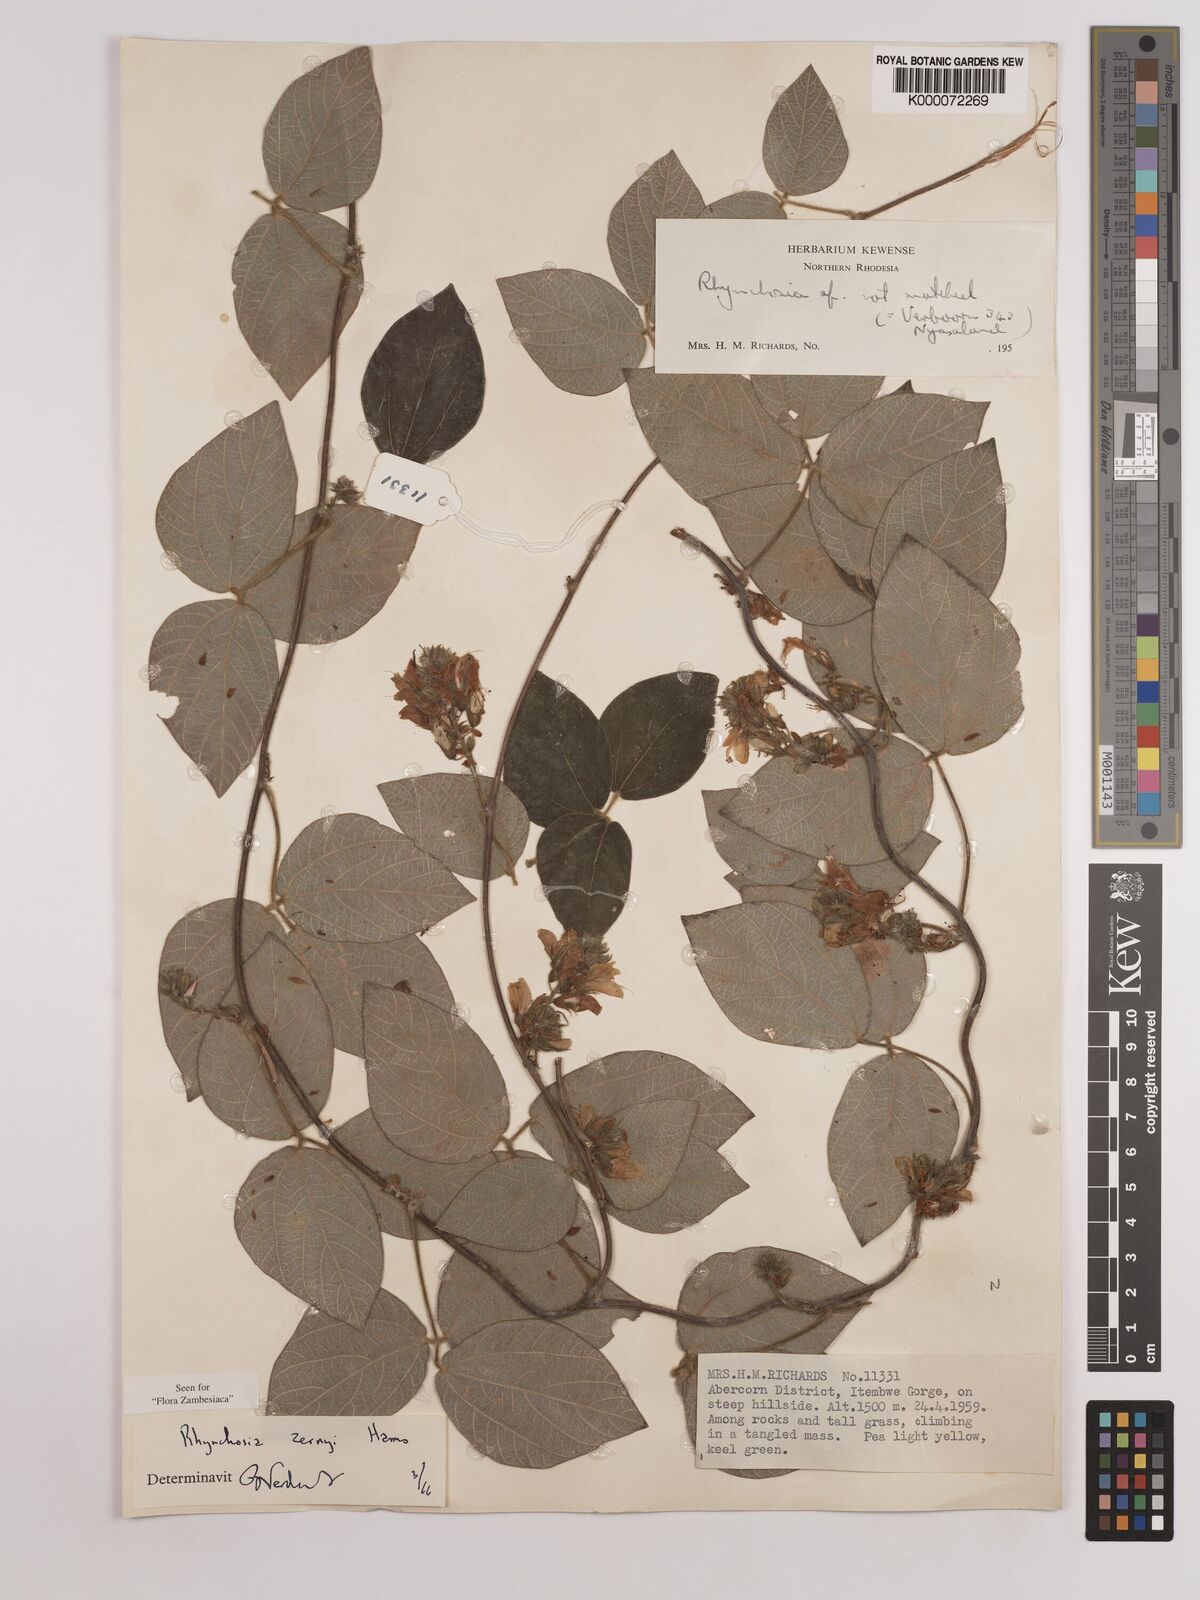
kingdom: Plantae
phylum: Tracheophyta
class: Magnoliopsida
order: Fabales
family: Fabaceae
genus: Rhynchosia
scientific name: Rhynchosia zernyi
